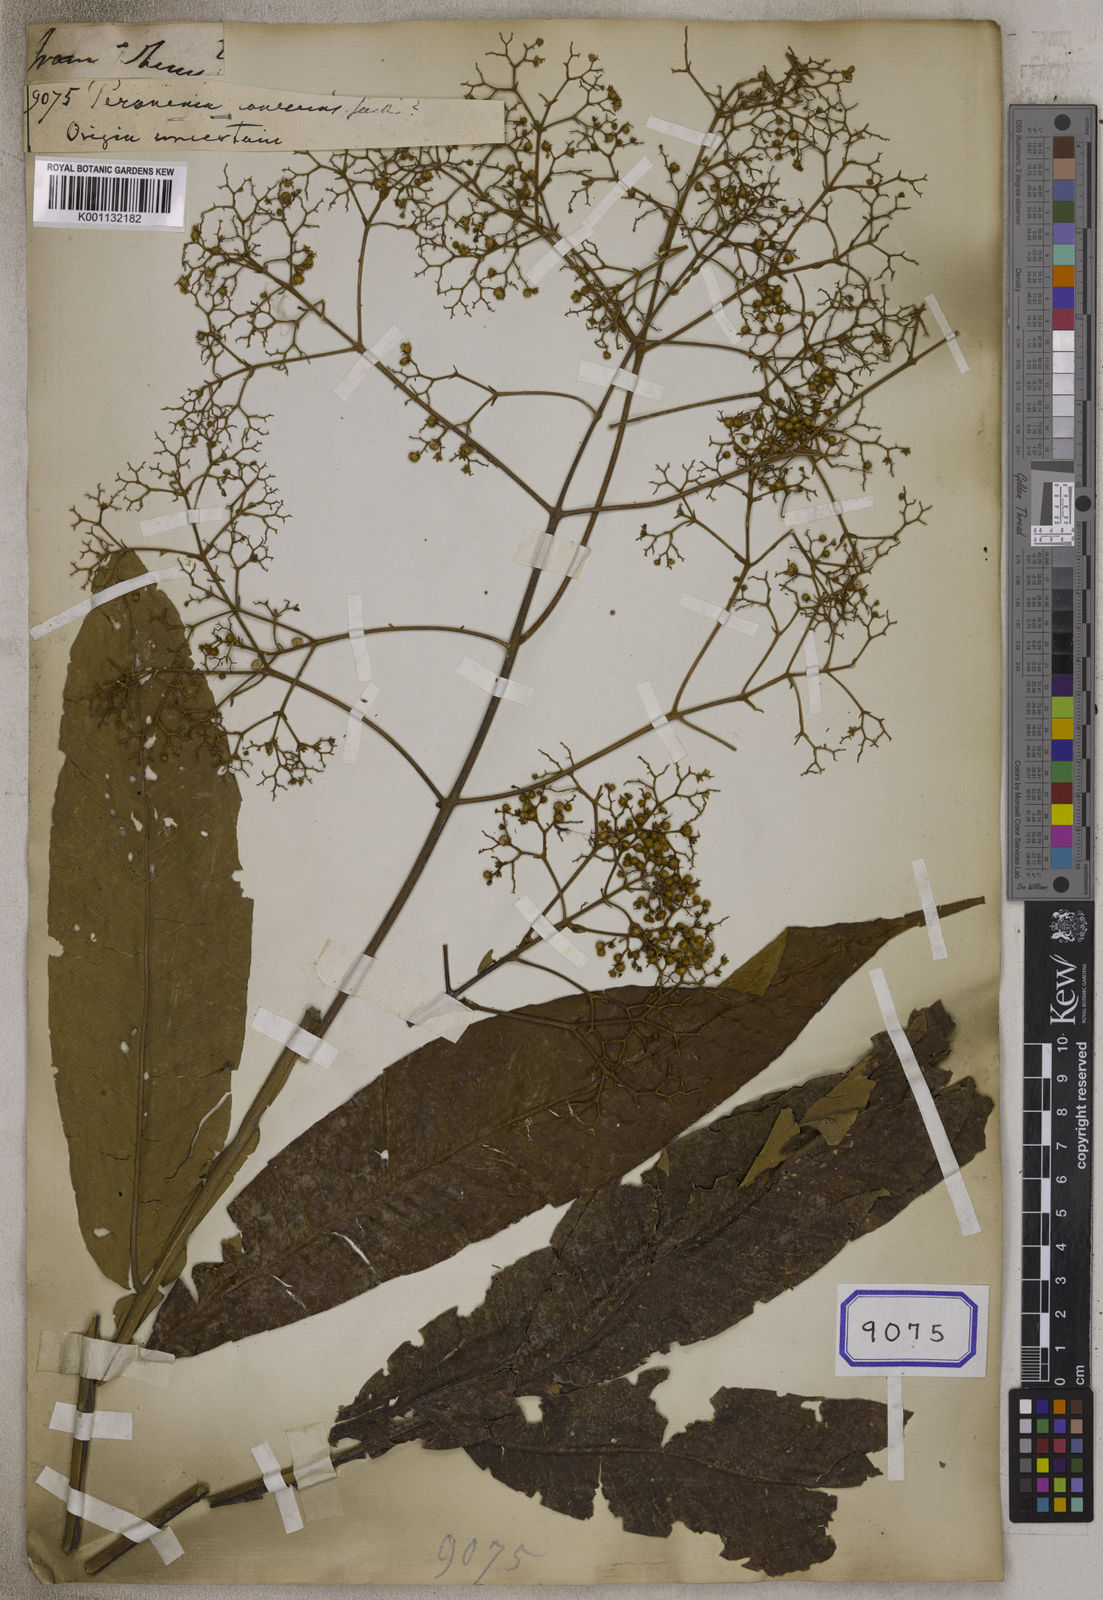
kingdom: Plantae
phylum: Tracheophyta
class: Magnoliopsida
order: Lamiales
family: Lamiaceae
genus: Peronema
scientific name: Peronema canescens
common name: False elder
